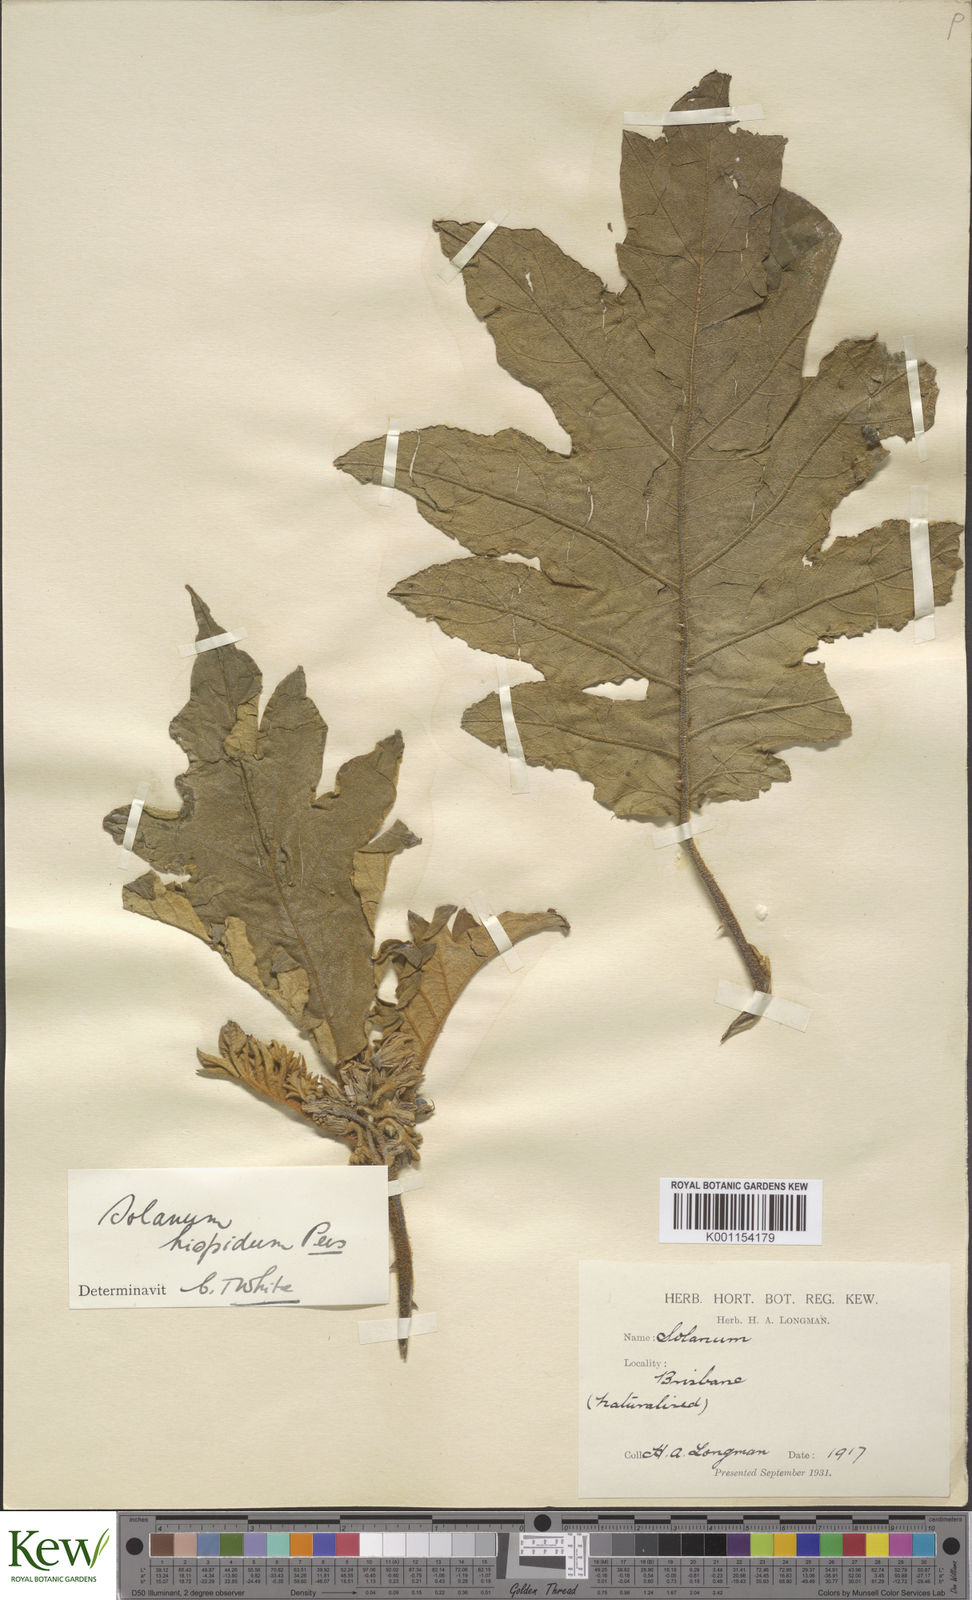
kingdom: Plantae
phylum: Tracheophyta
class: Magnoliopsida
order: Solanales
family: Solanaceae
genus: Solanum
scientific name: Solanum asperolanatum
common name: Devil's-fig
